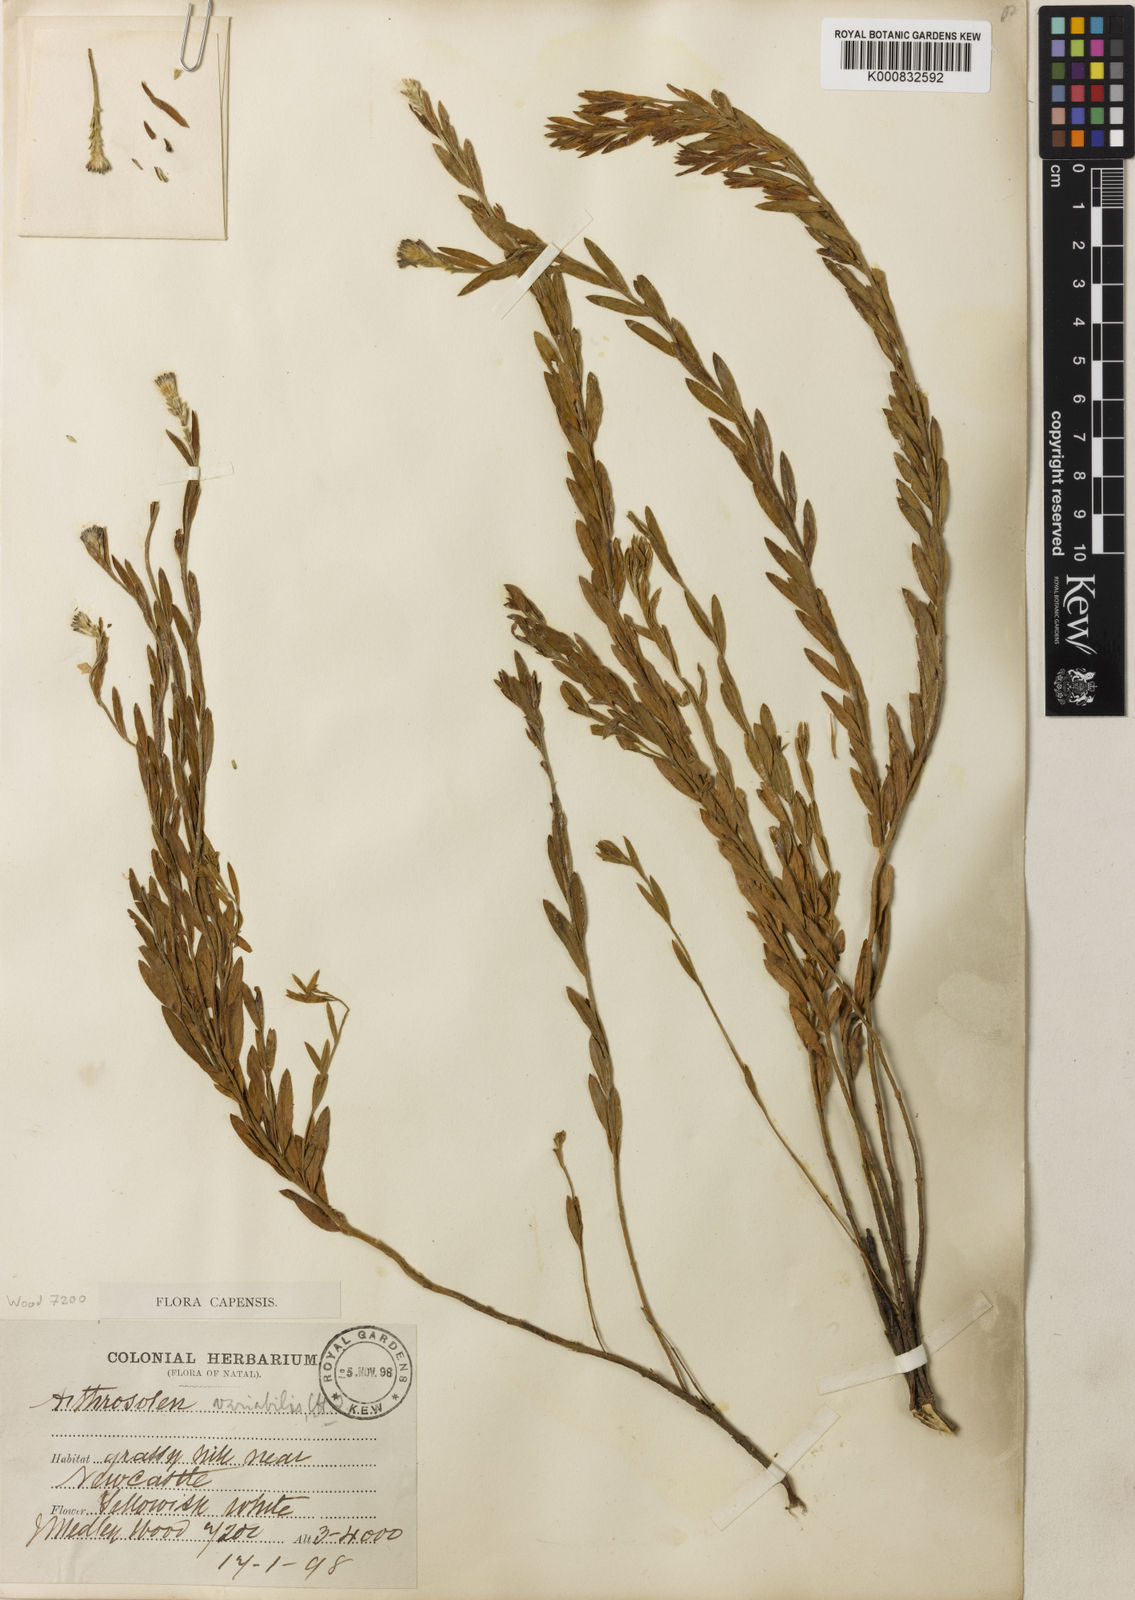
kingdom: Plantae
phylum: Tracheophyta
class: Magnoliopsida
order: Malvales
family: Thymelaeaceae
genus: Gnidia
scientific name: Gnidia variabilis
